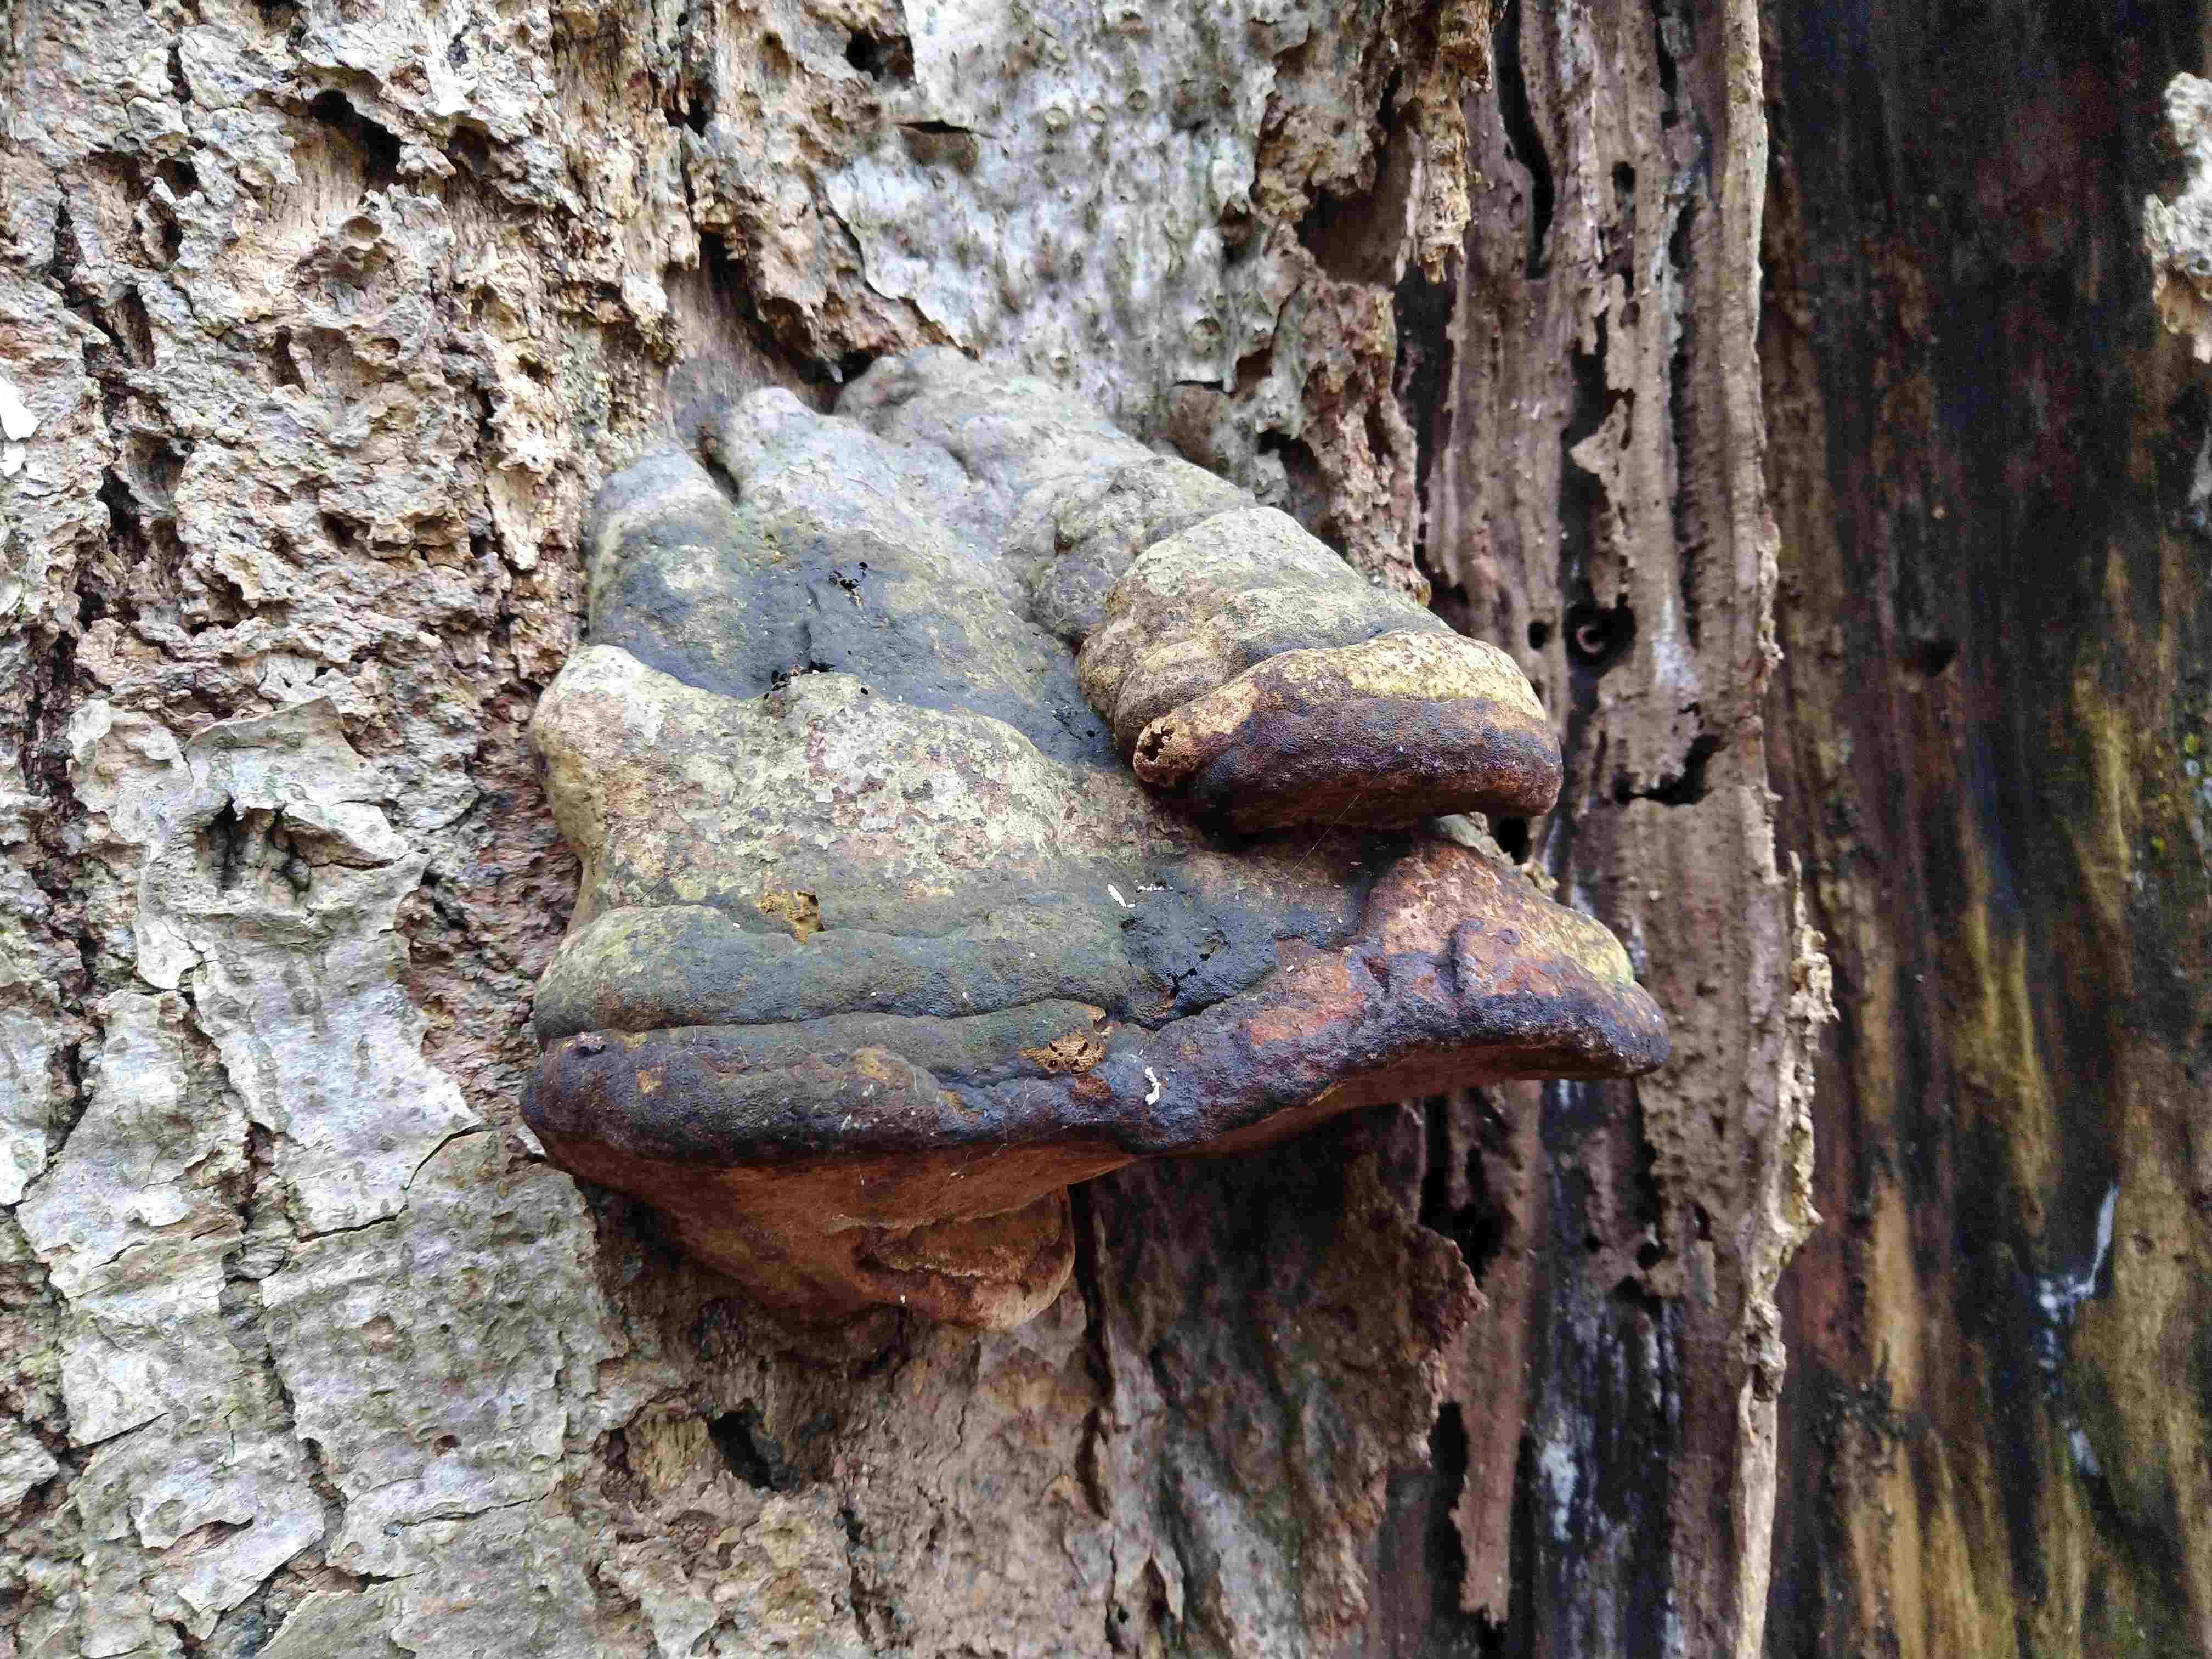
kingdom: Fungi
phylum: Basidiomycota
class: Agaricomycetes
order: Polyporales
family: Polyporaceae
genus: Fomes
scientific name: Fomes fomentarius
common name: tøndersvamp
